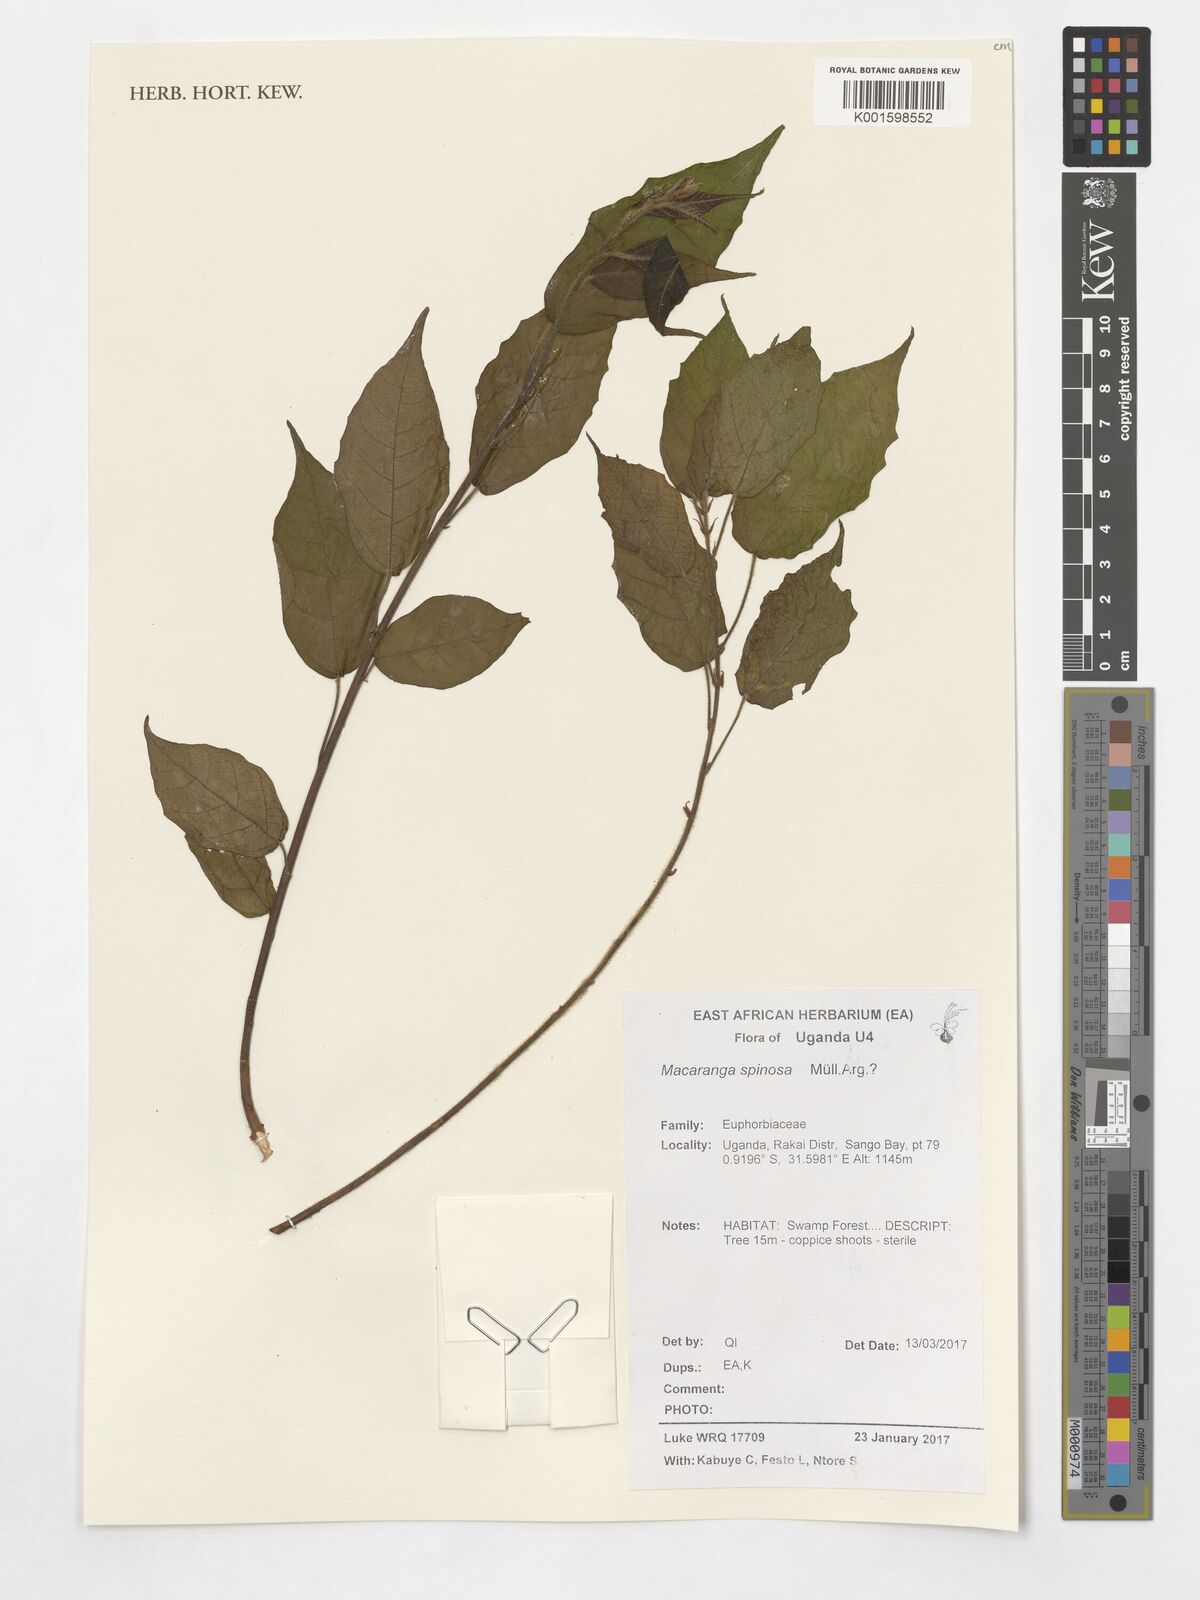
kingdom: Plantae
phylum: Tracheophyta
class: Magnoliopsida
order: Malpighiales
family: Euphorbiaceae
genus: Macaranga
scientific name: Macaranga spinosa
